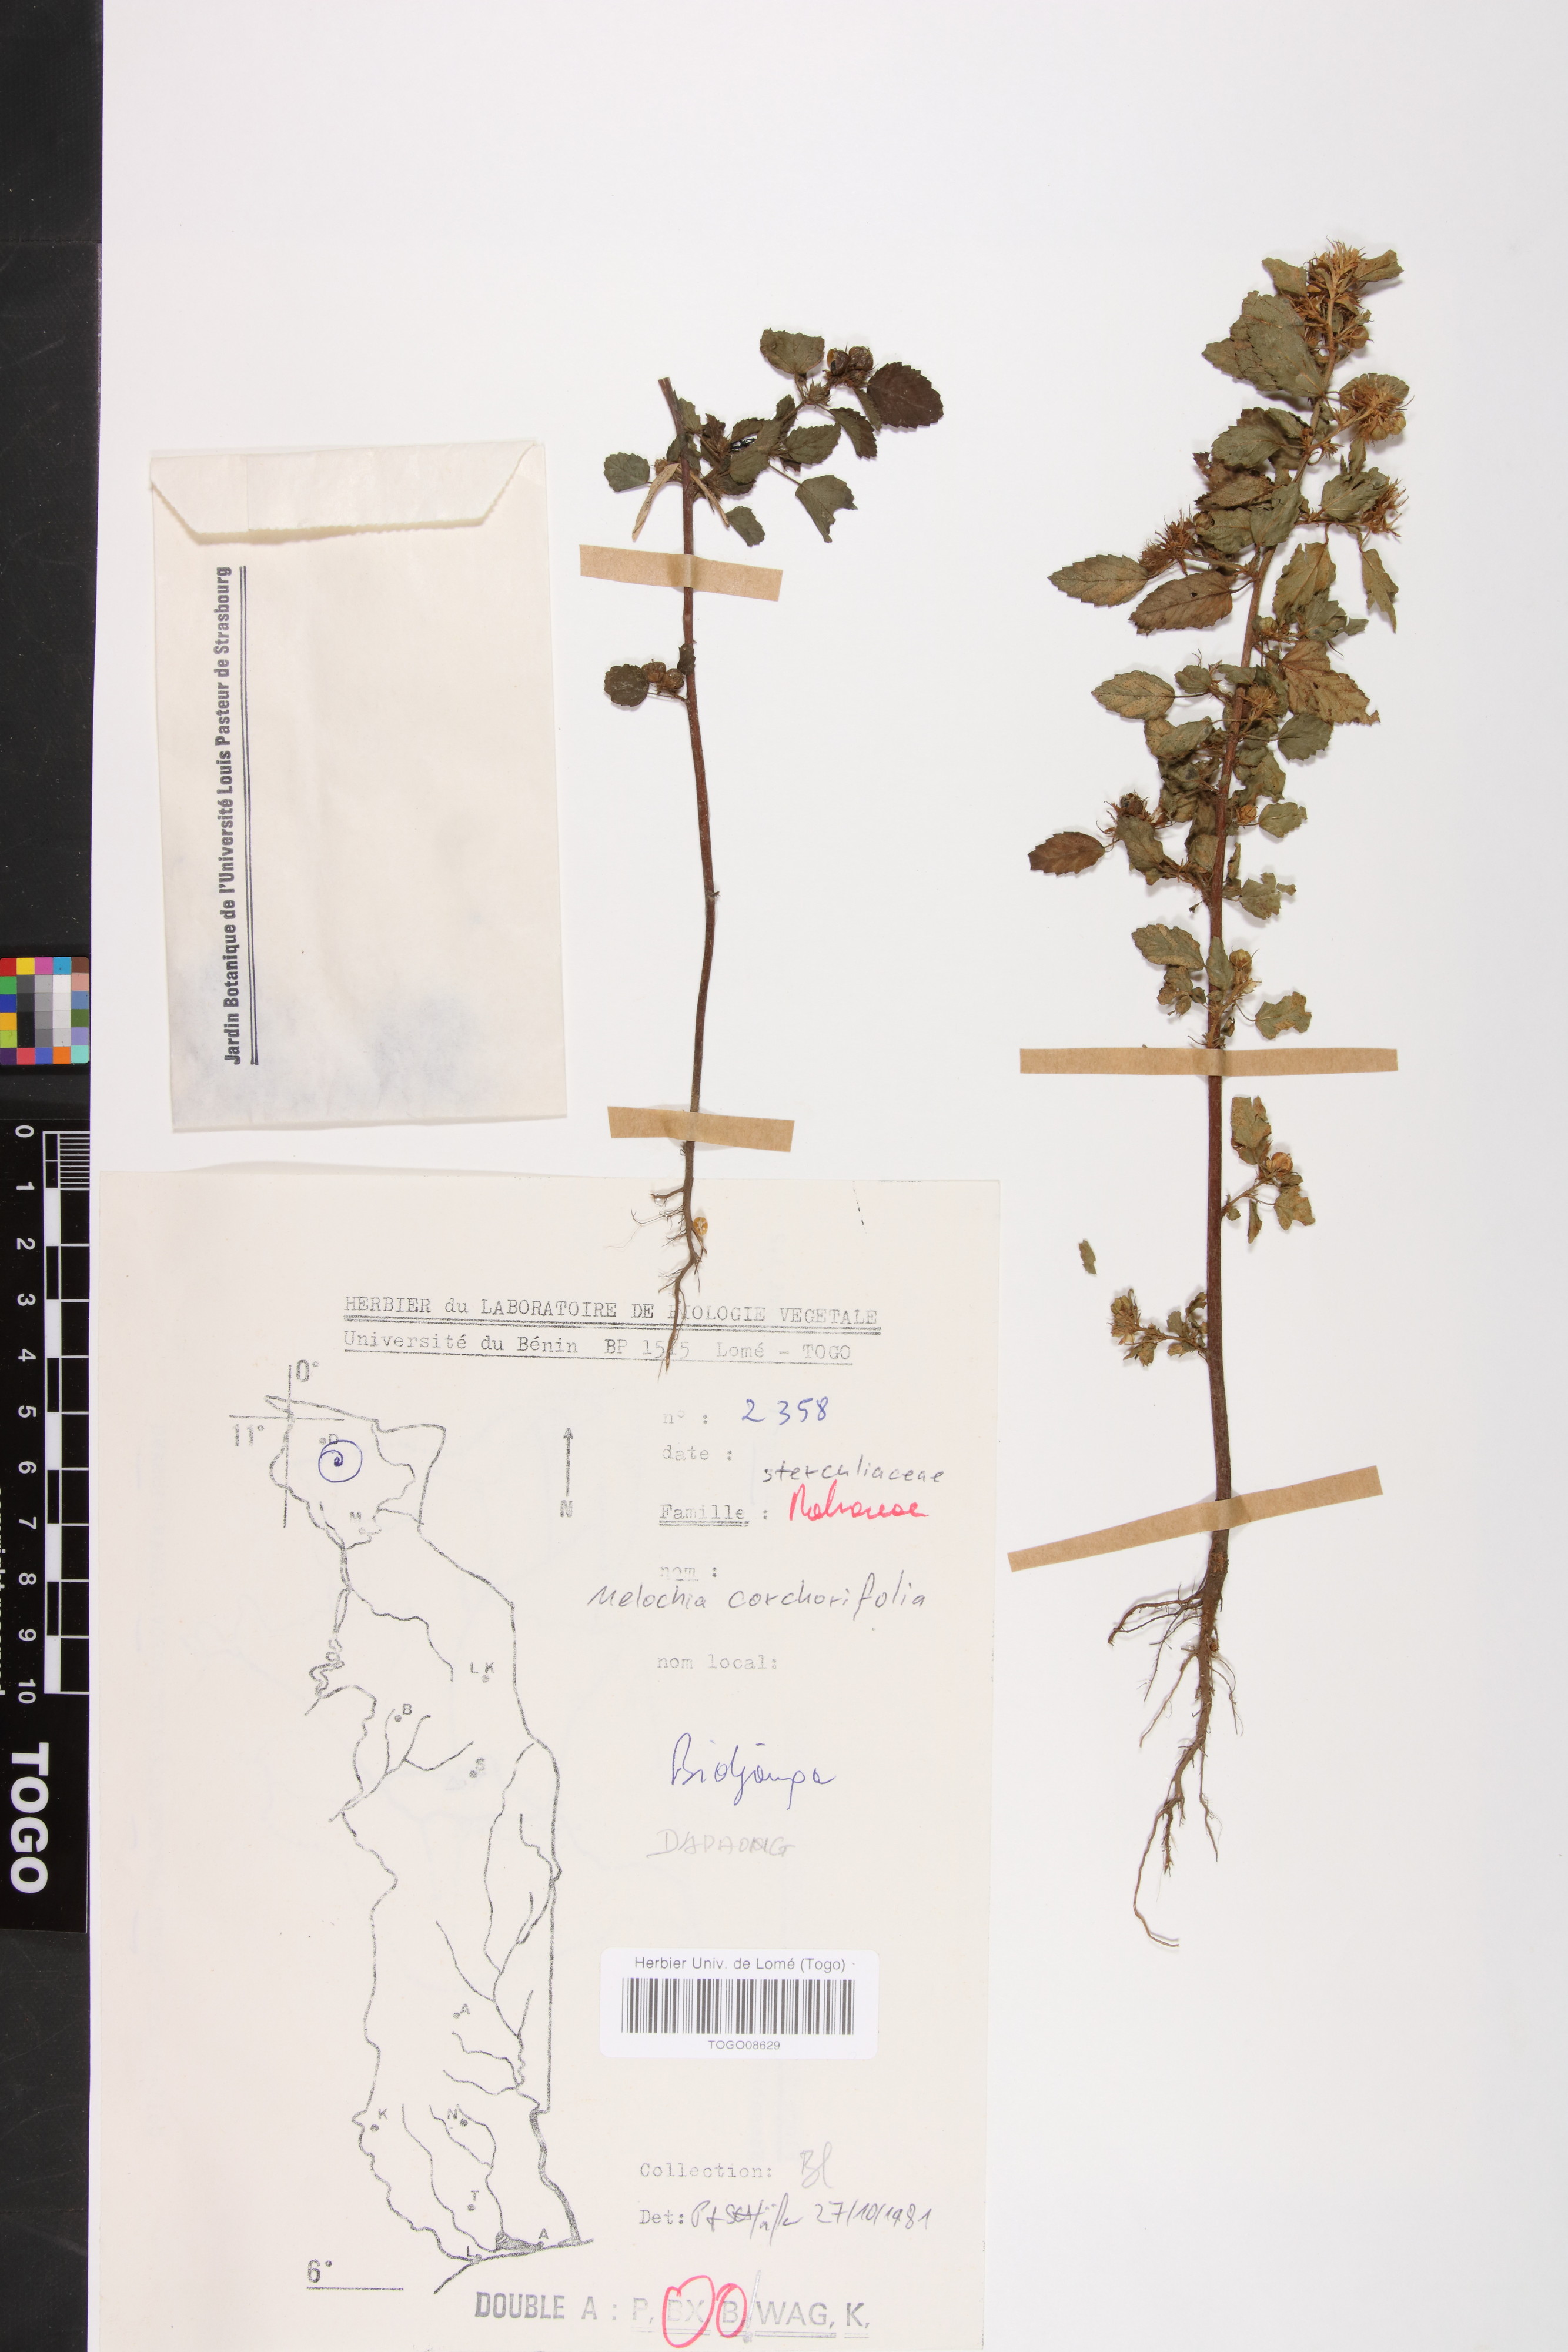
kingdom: Plantae
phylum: Tracheophyta
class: Magnoliopsida
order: Malvales
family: Malvaceae
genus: Melochia
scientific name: Melochia corchorifolia
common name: Chocolateweed
